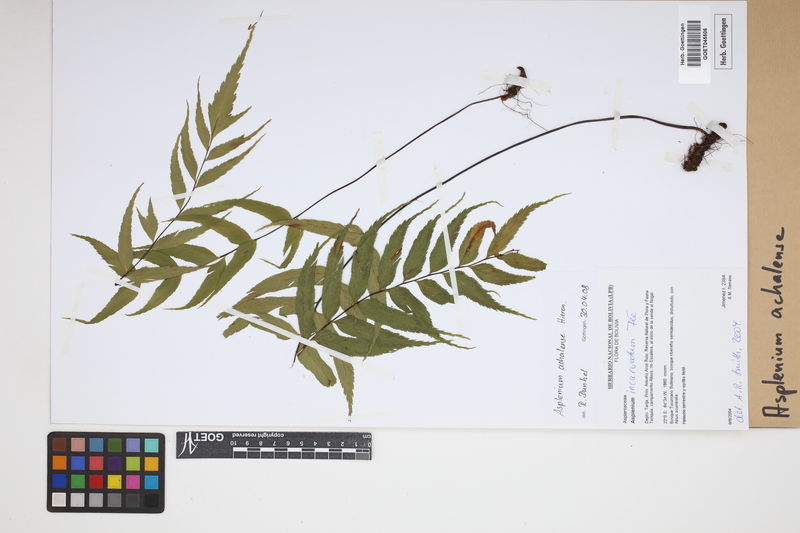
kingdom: Plantae
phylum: Tracheophyta
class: Polypodiopsida
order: Polypodiales
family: Aspleniaceae
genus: Asplenium
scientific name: Asplenium achalense
